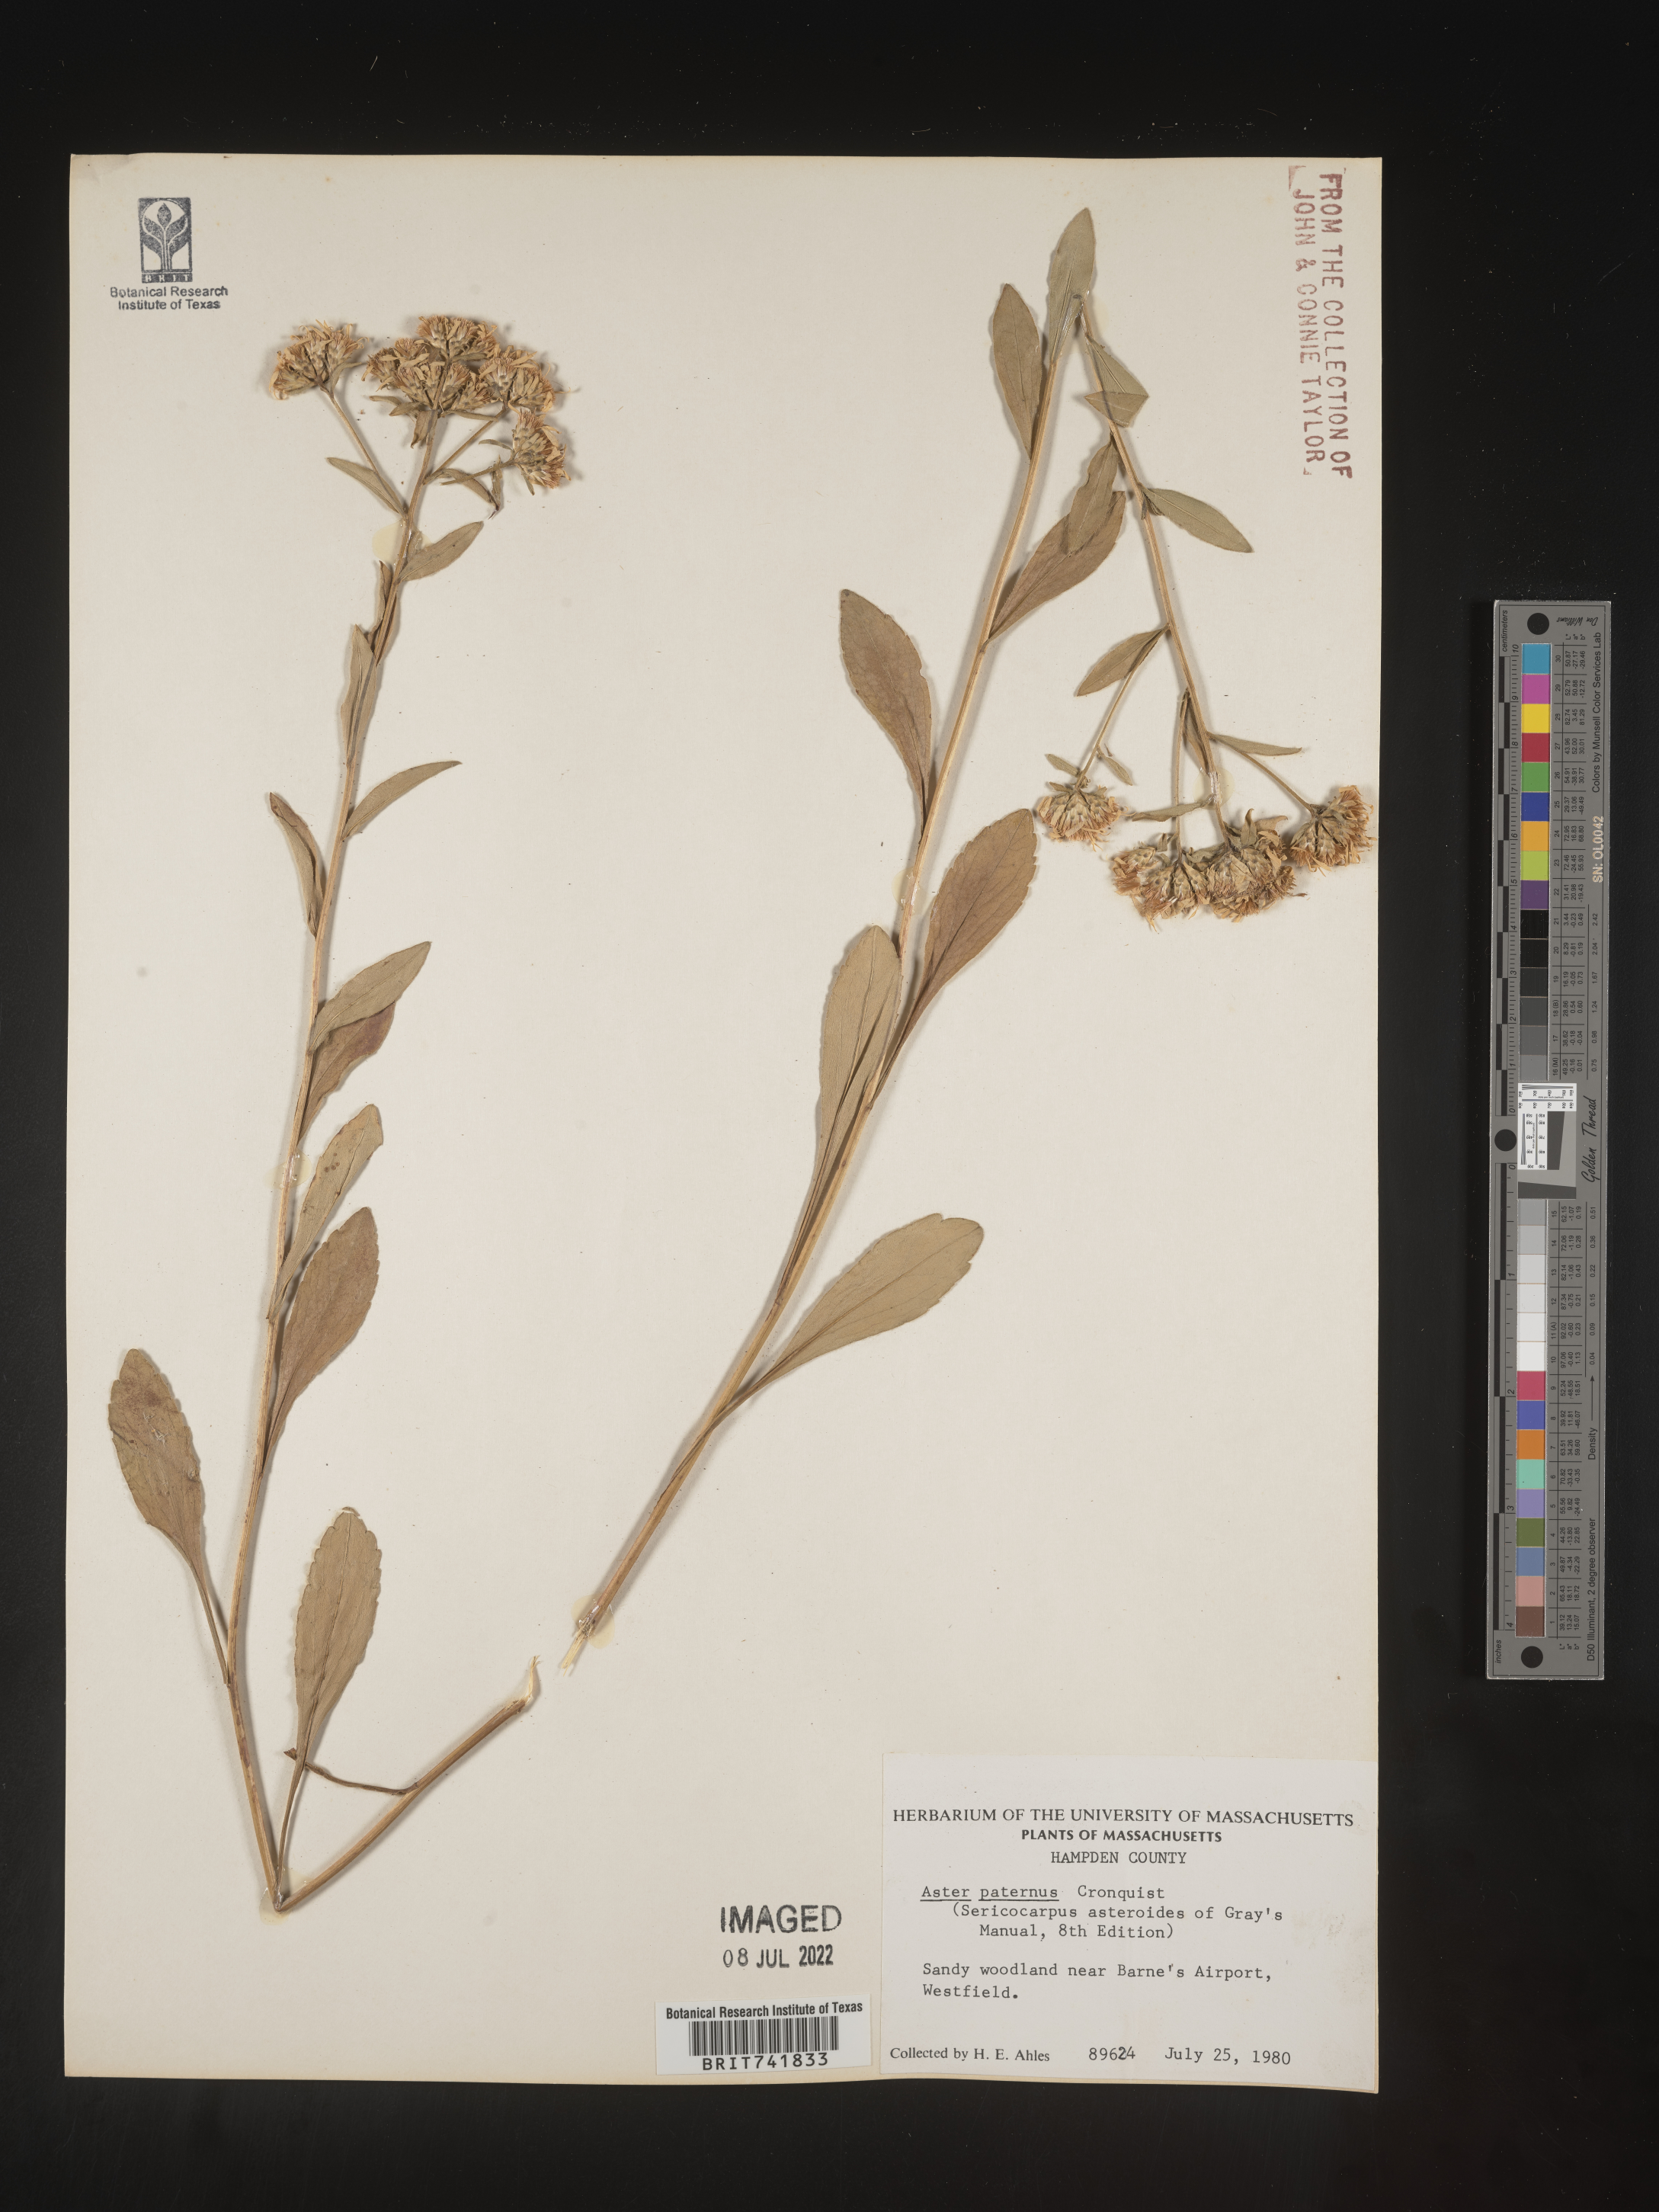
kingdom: Plantae
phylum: Tracheophyta
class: Magnoliopsida
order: Asterales
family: Asteraceae
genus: Sericocarpus
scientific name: Sericocarpus asteroides
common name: Toothed white-top aster
